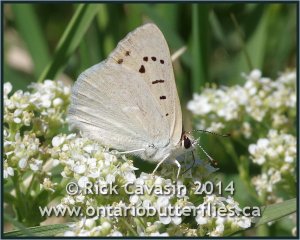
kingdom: Animalia
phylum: Arthropoda
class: Insecta
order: Lepidoptera
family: Sesiidae
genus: Sesia
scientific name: Sesia Lycaena rubidus
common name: Ruddy Copper
